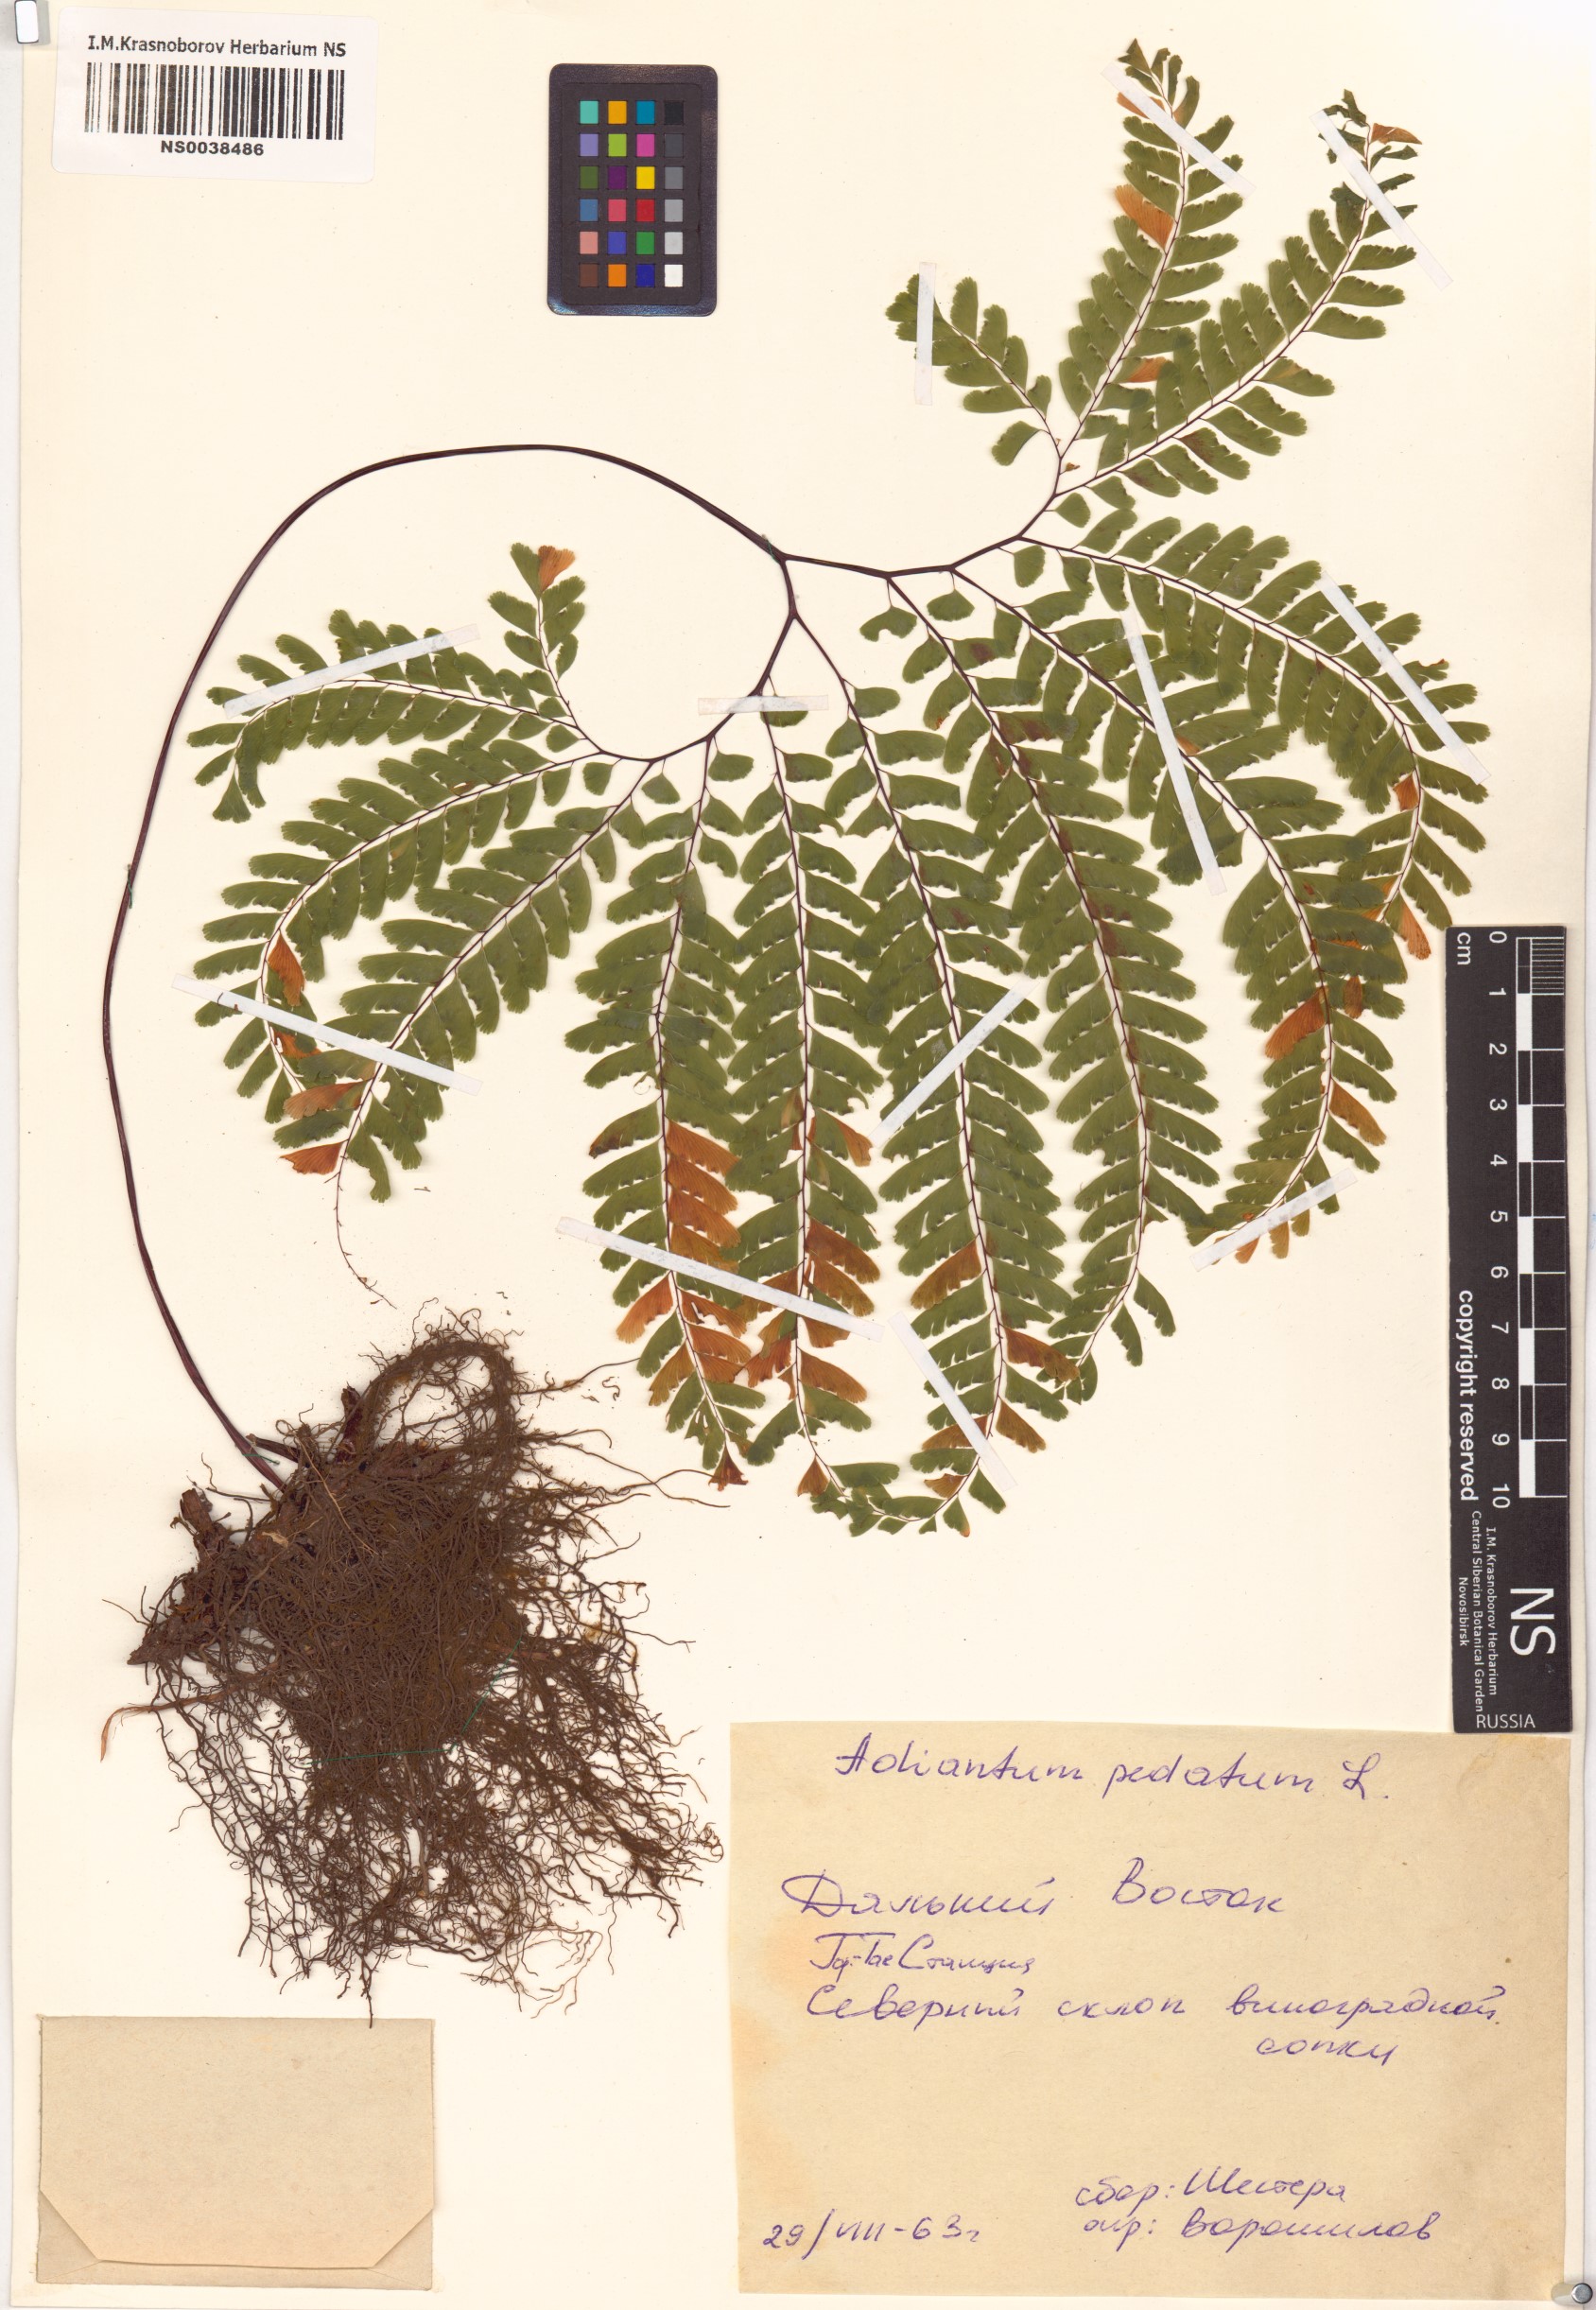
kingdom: Plantae
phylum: Tracheophyta
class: Polypodiopsida
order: Polypodiales
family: Pteridaceae
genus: Adiantum
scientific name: Adiantum pedatum
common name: Five-finger fern
